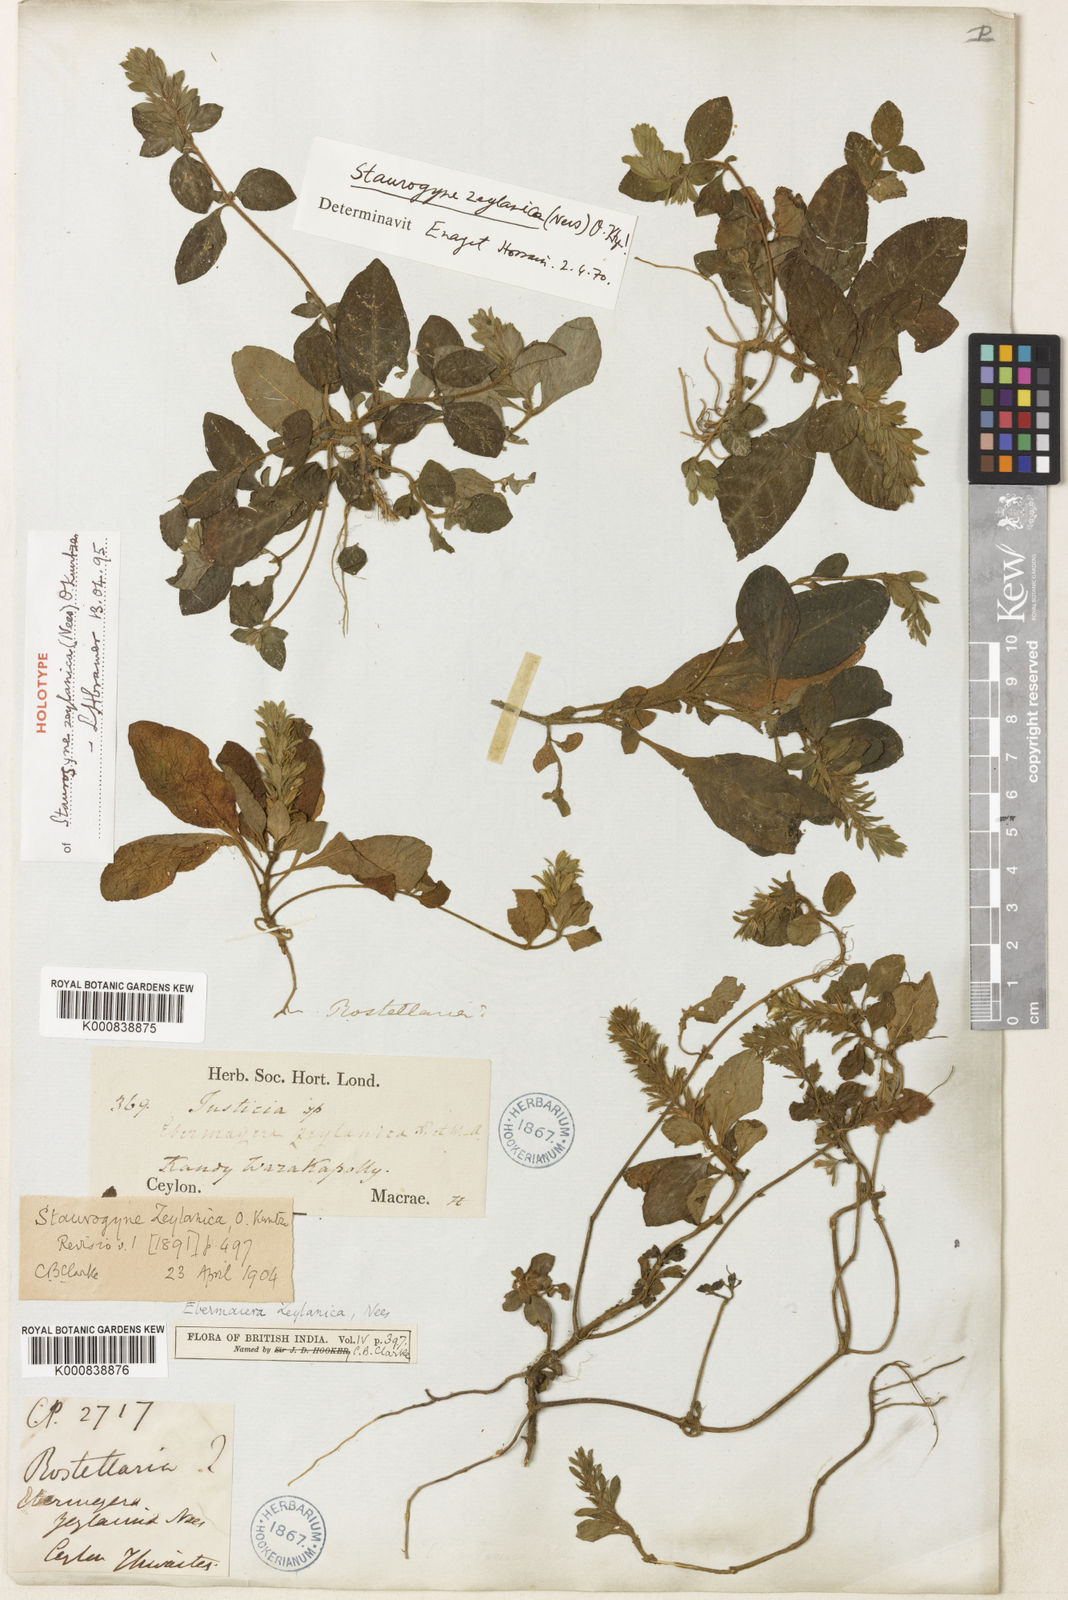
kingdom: Plantae
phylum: Tracheophyta
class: Magnoliopsida
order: Lamiales
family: Acanthaceae
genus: Staurogyne
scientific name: Staurogyne zeylanica
